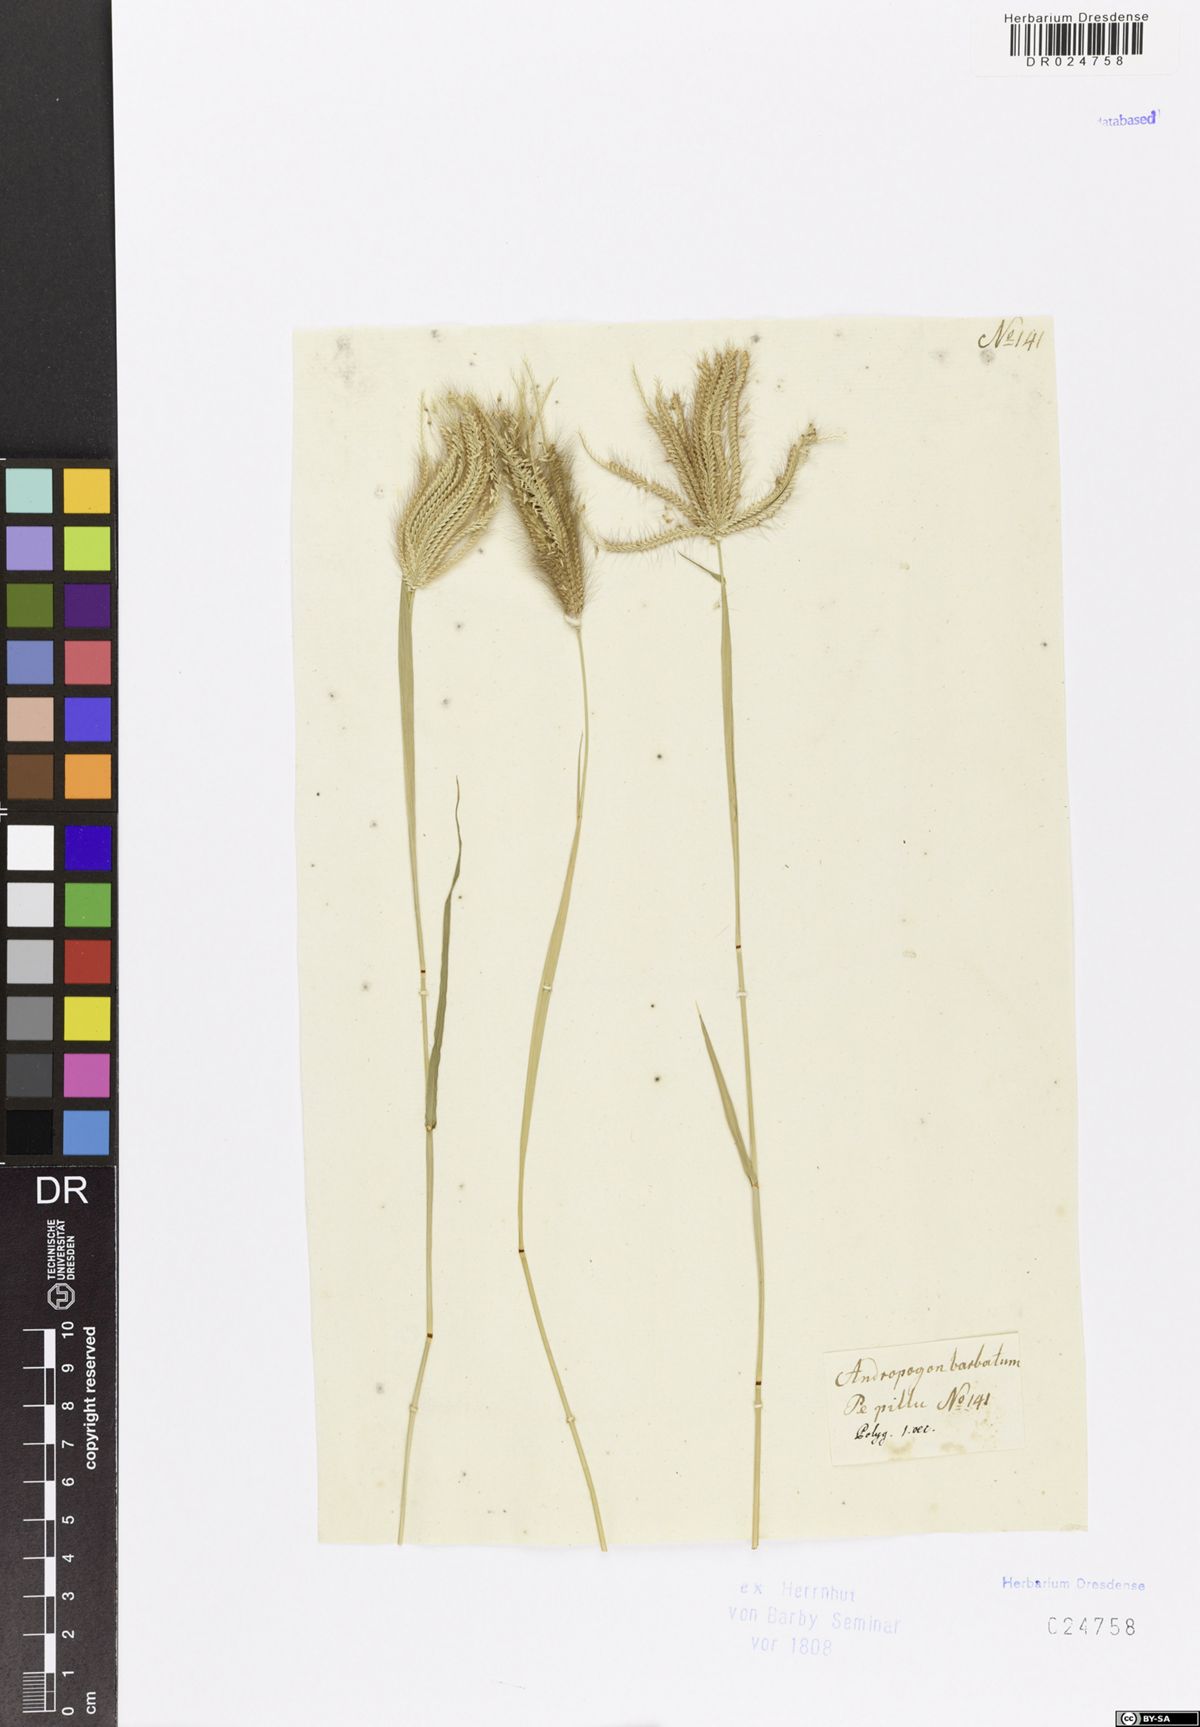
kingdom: Plantae
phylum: Tracheophyta
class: Liliopsida
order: Poales
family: Poaceae
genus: Chloris
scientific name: Chloris barbata
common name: Swollen fingergrass
